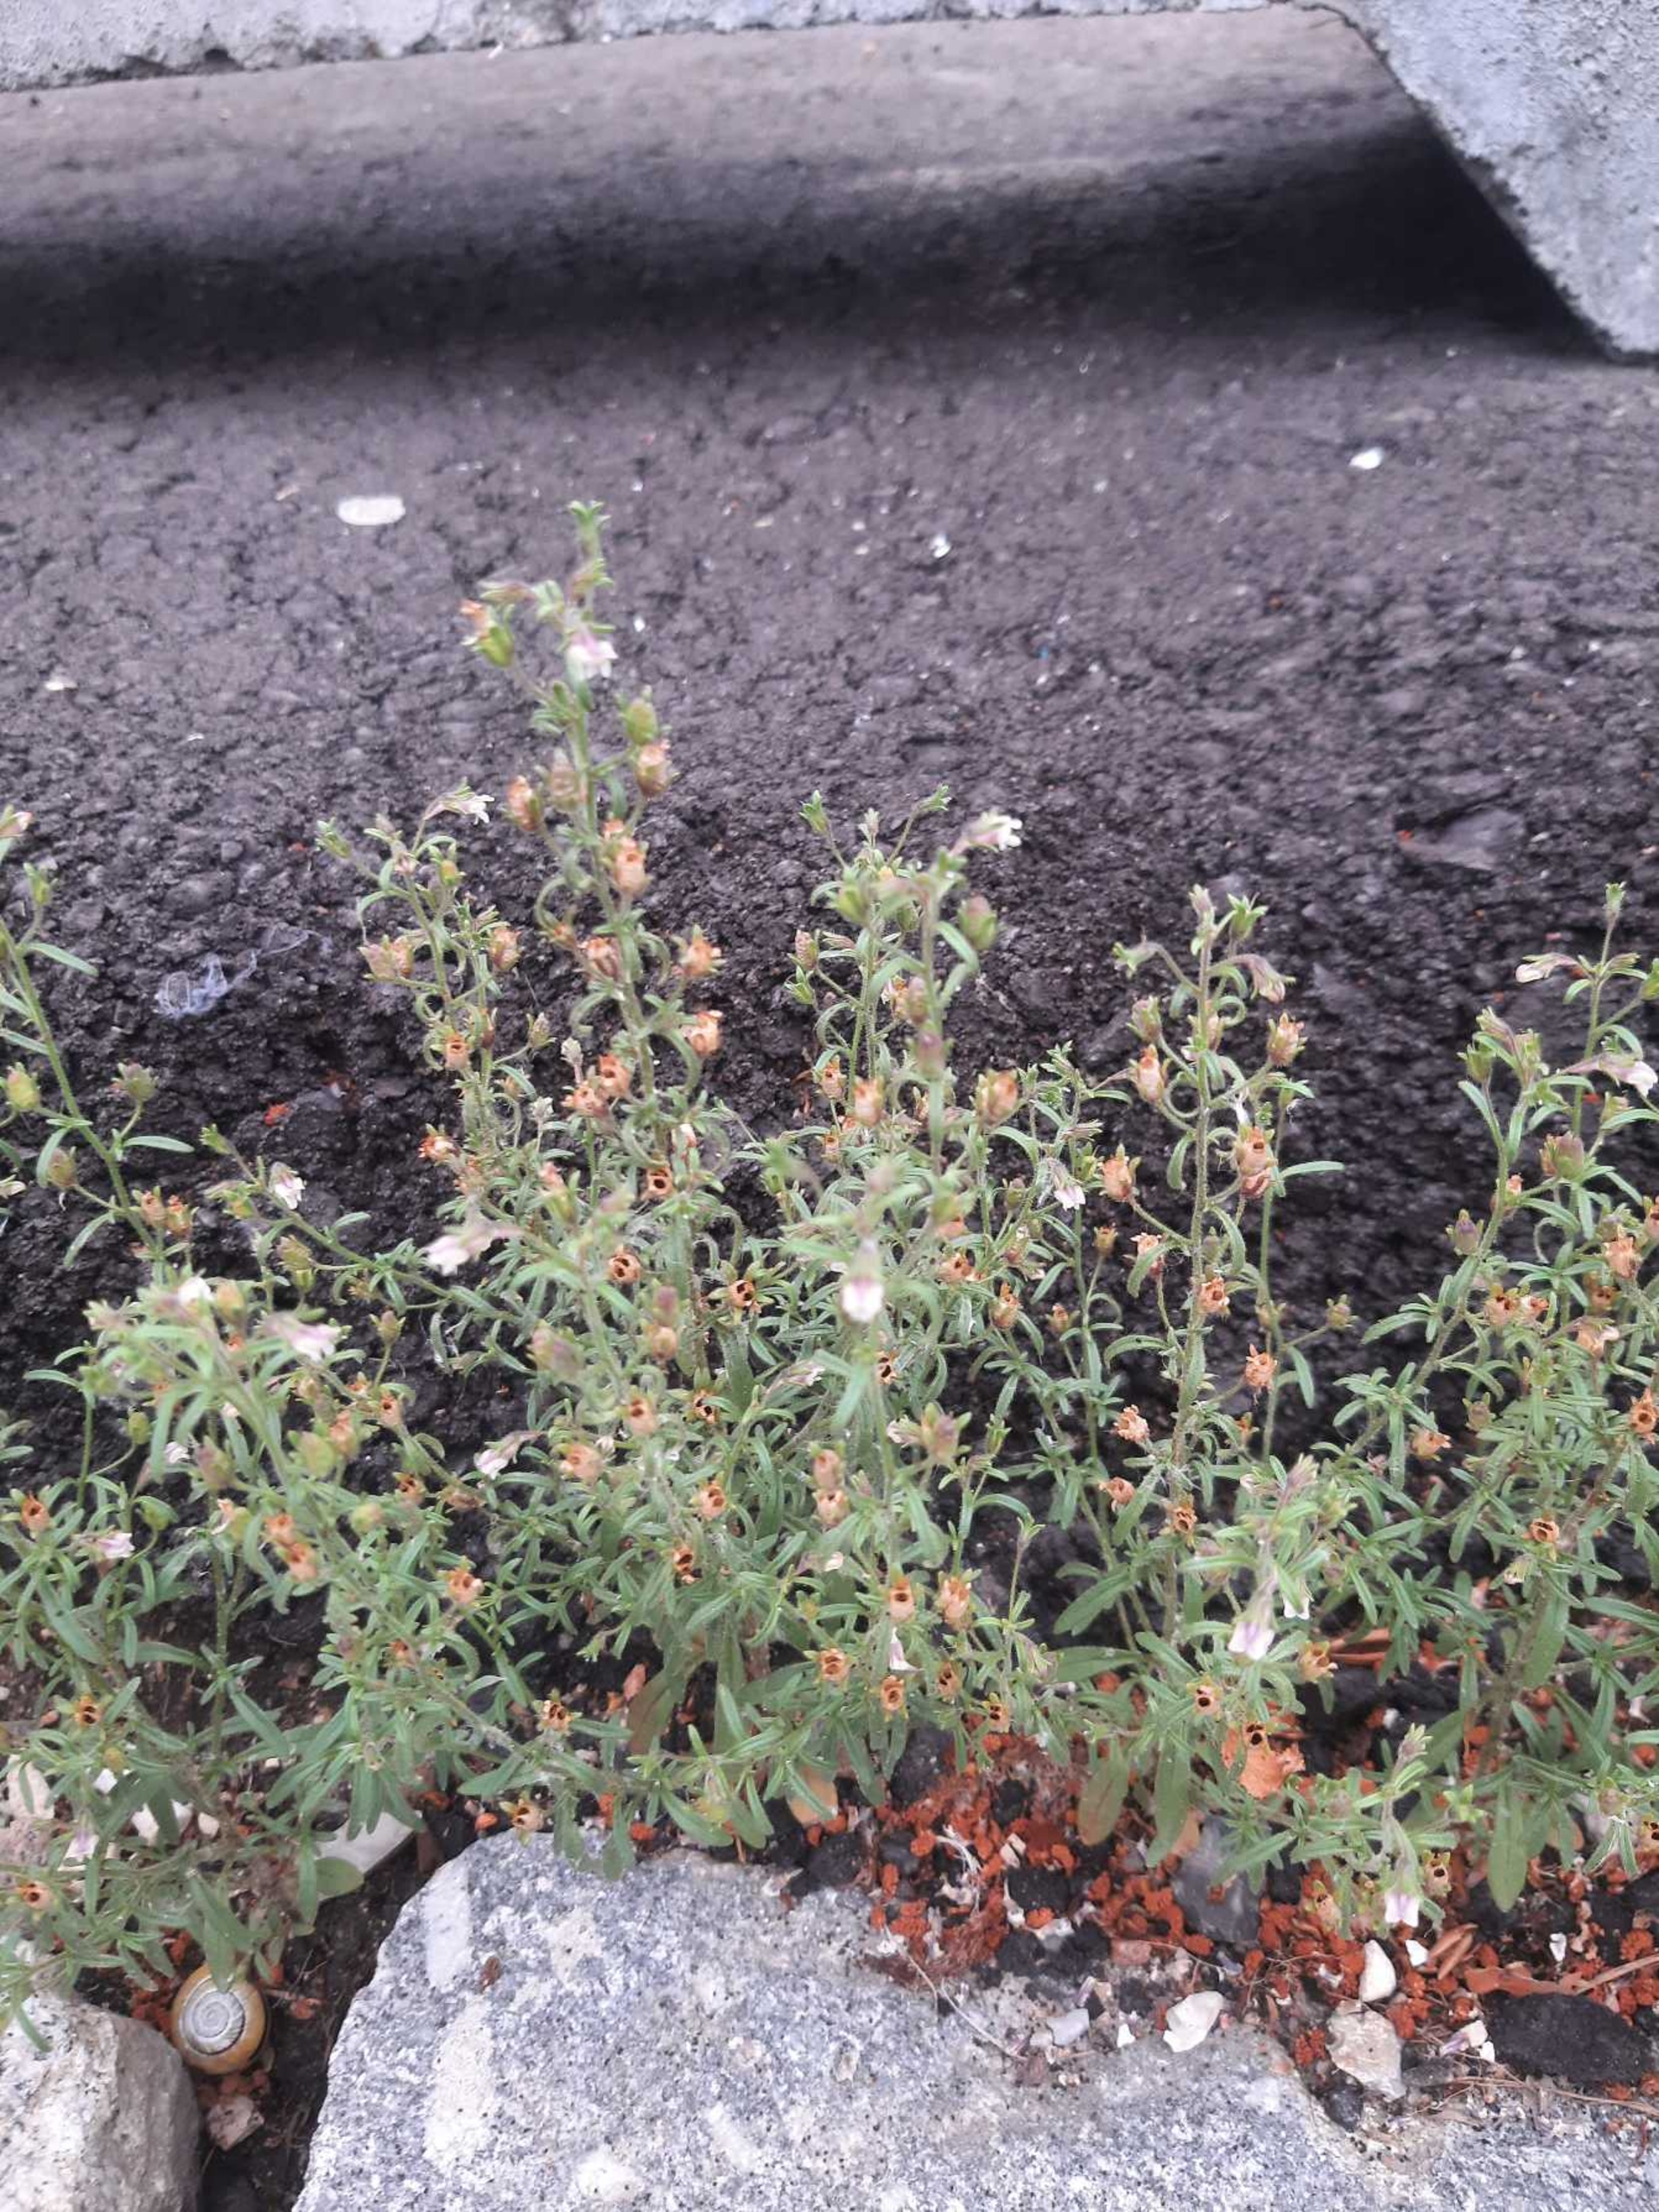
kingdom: Plantae
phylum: Tracheophyta
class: Magnoliopsida
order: Lamiales
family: Plantaginaceae
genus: Chaenorhinum
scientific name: Chaenorhinum minus
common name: Liden torskemund
